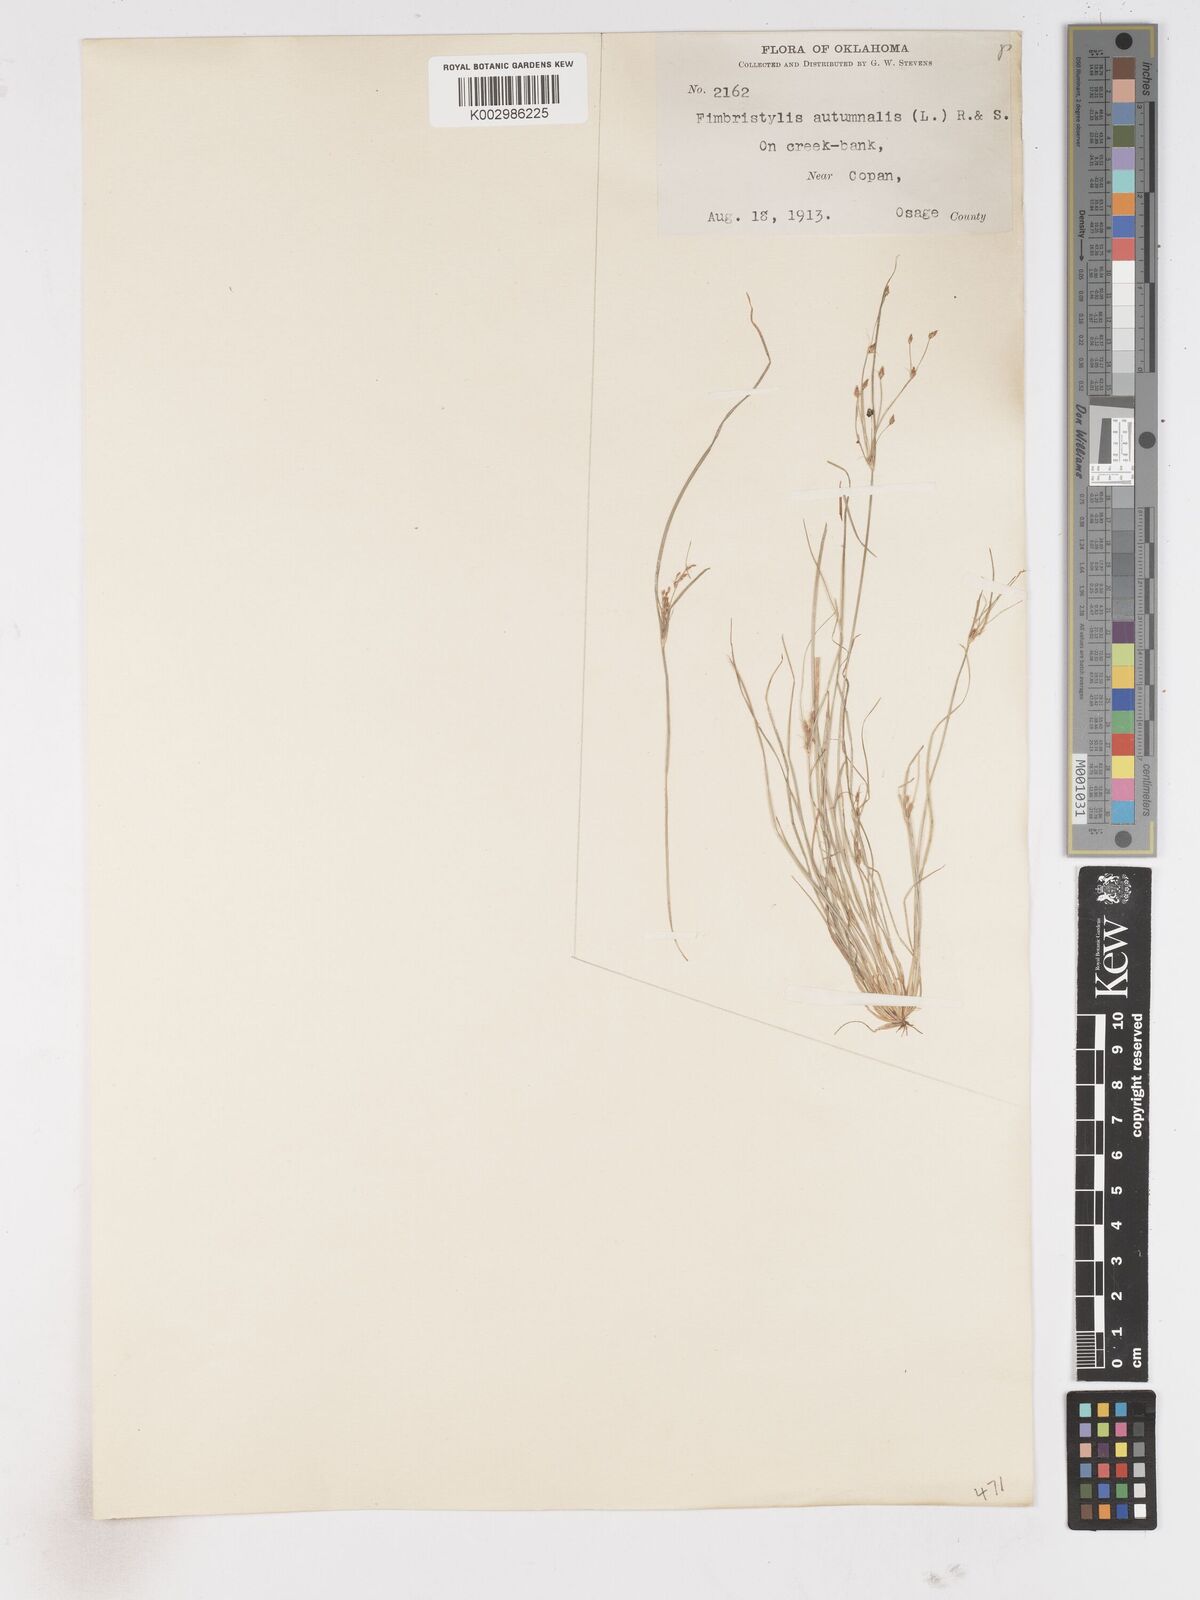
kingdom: Plantae
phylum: Tracheophyta
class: Liliopsida
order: Poales
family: Cyperaceae
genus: Fimbristylis
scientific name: Fimbristylis autumnalis
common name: Slender fimbristylis
